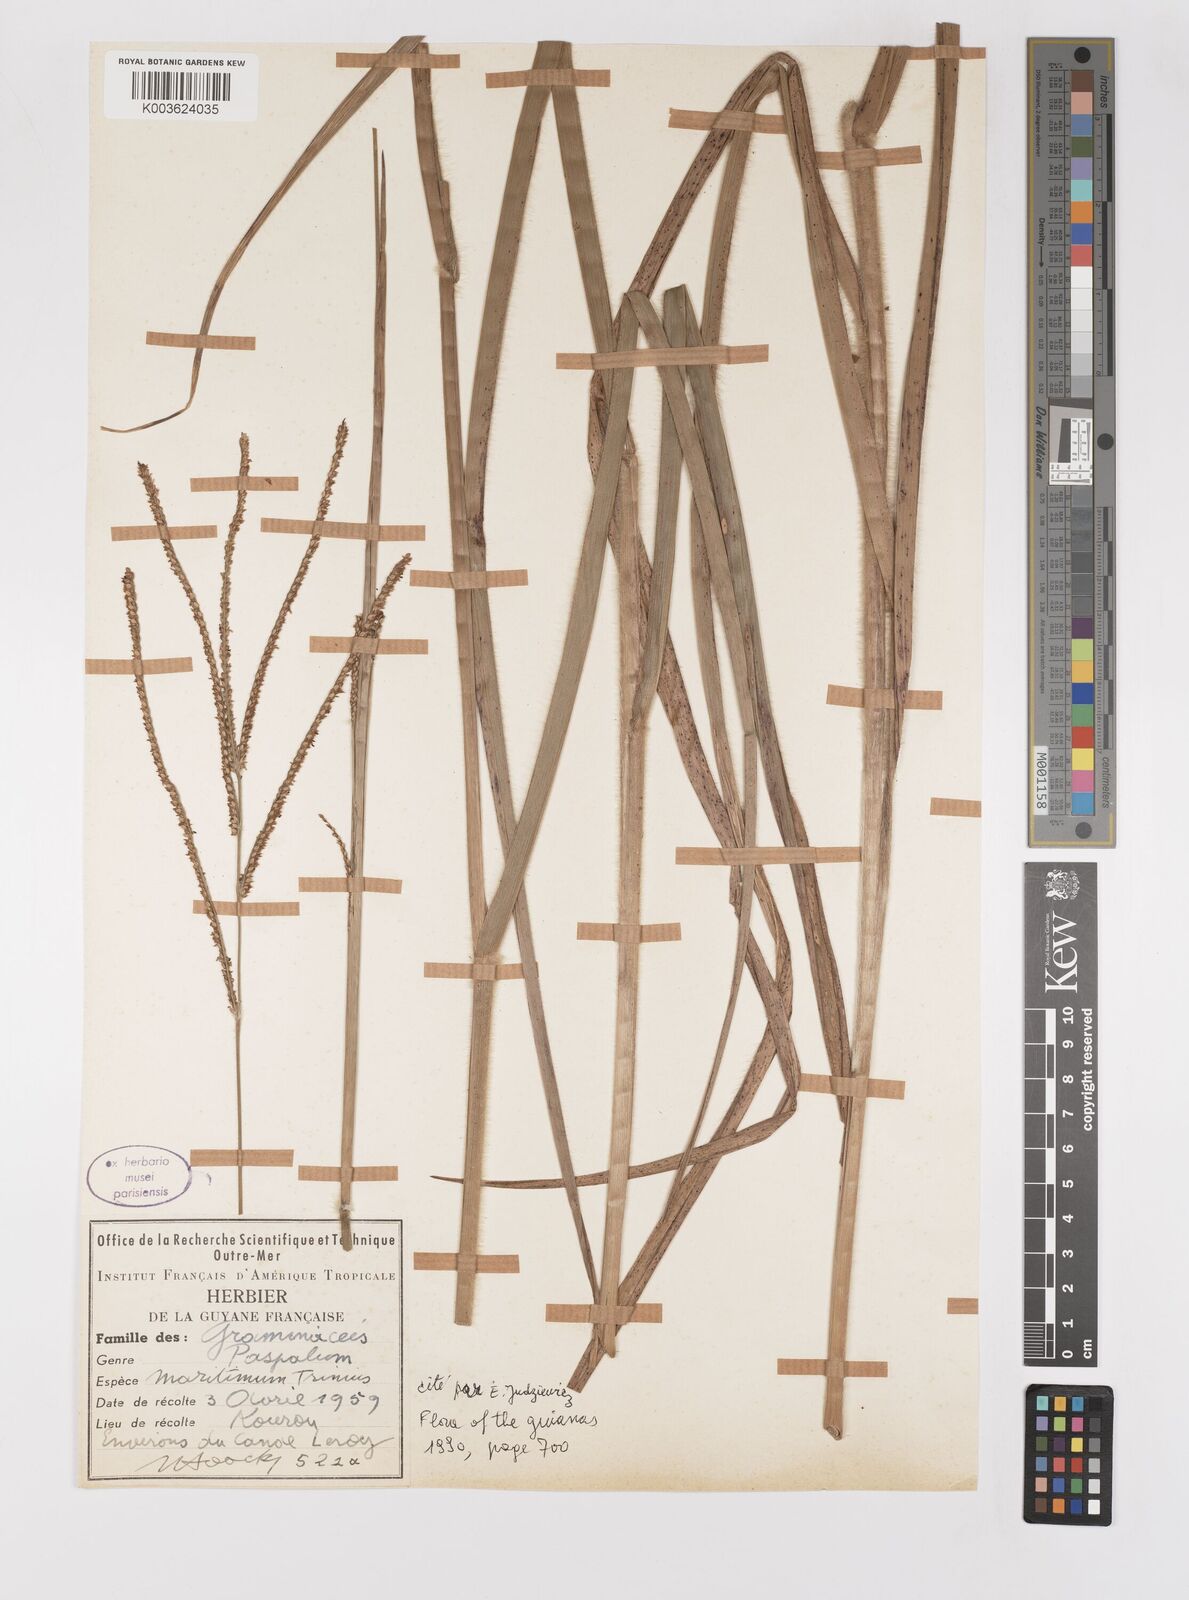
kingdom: Plantae
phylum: Tracheophyta
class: Liliopsida
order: Poales
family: Poaceae
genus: Paspalum
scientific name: Paspalum maritimum
